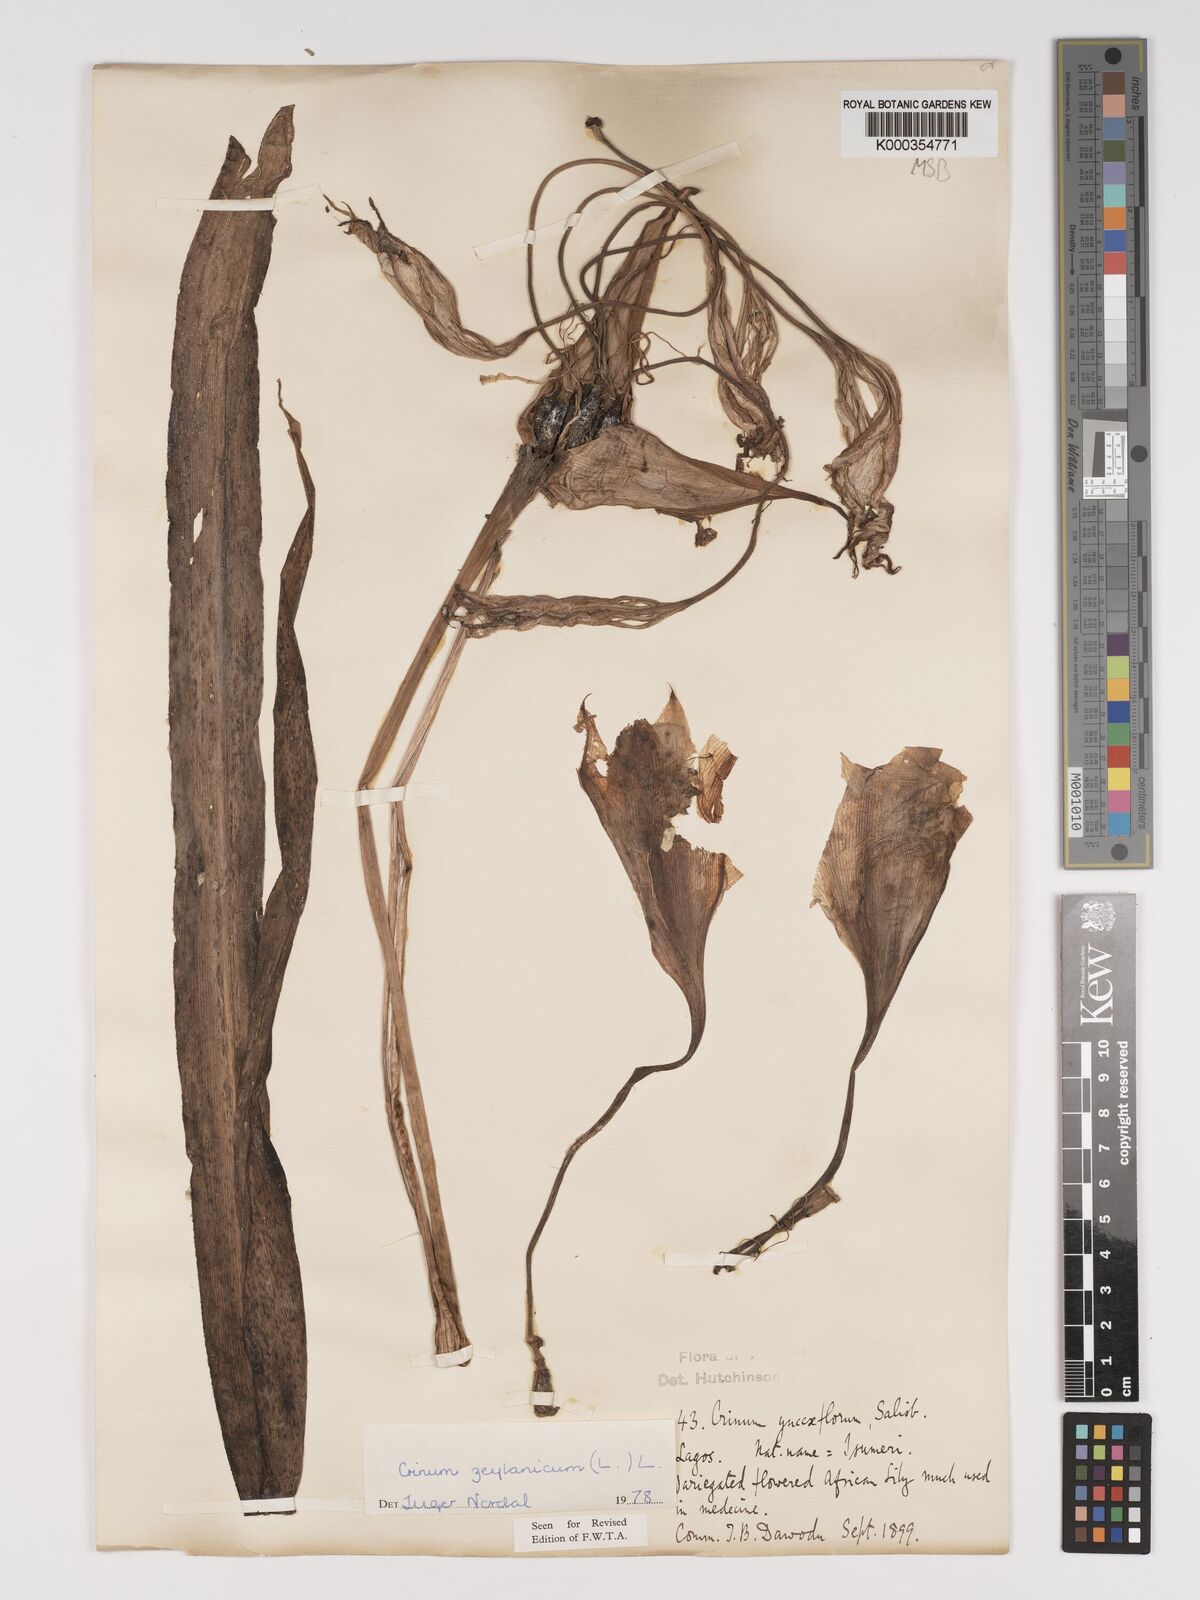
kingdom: Plantae
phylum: Tracheophyta
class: Liliopsida
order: Asparagales
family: Amaryllidaceae
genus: Crinum
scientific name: Crinum zeylanicum
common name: Ceylon swamplily
